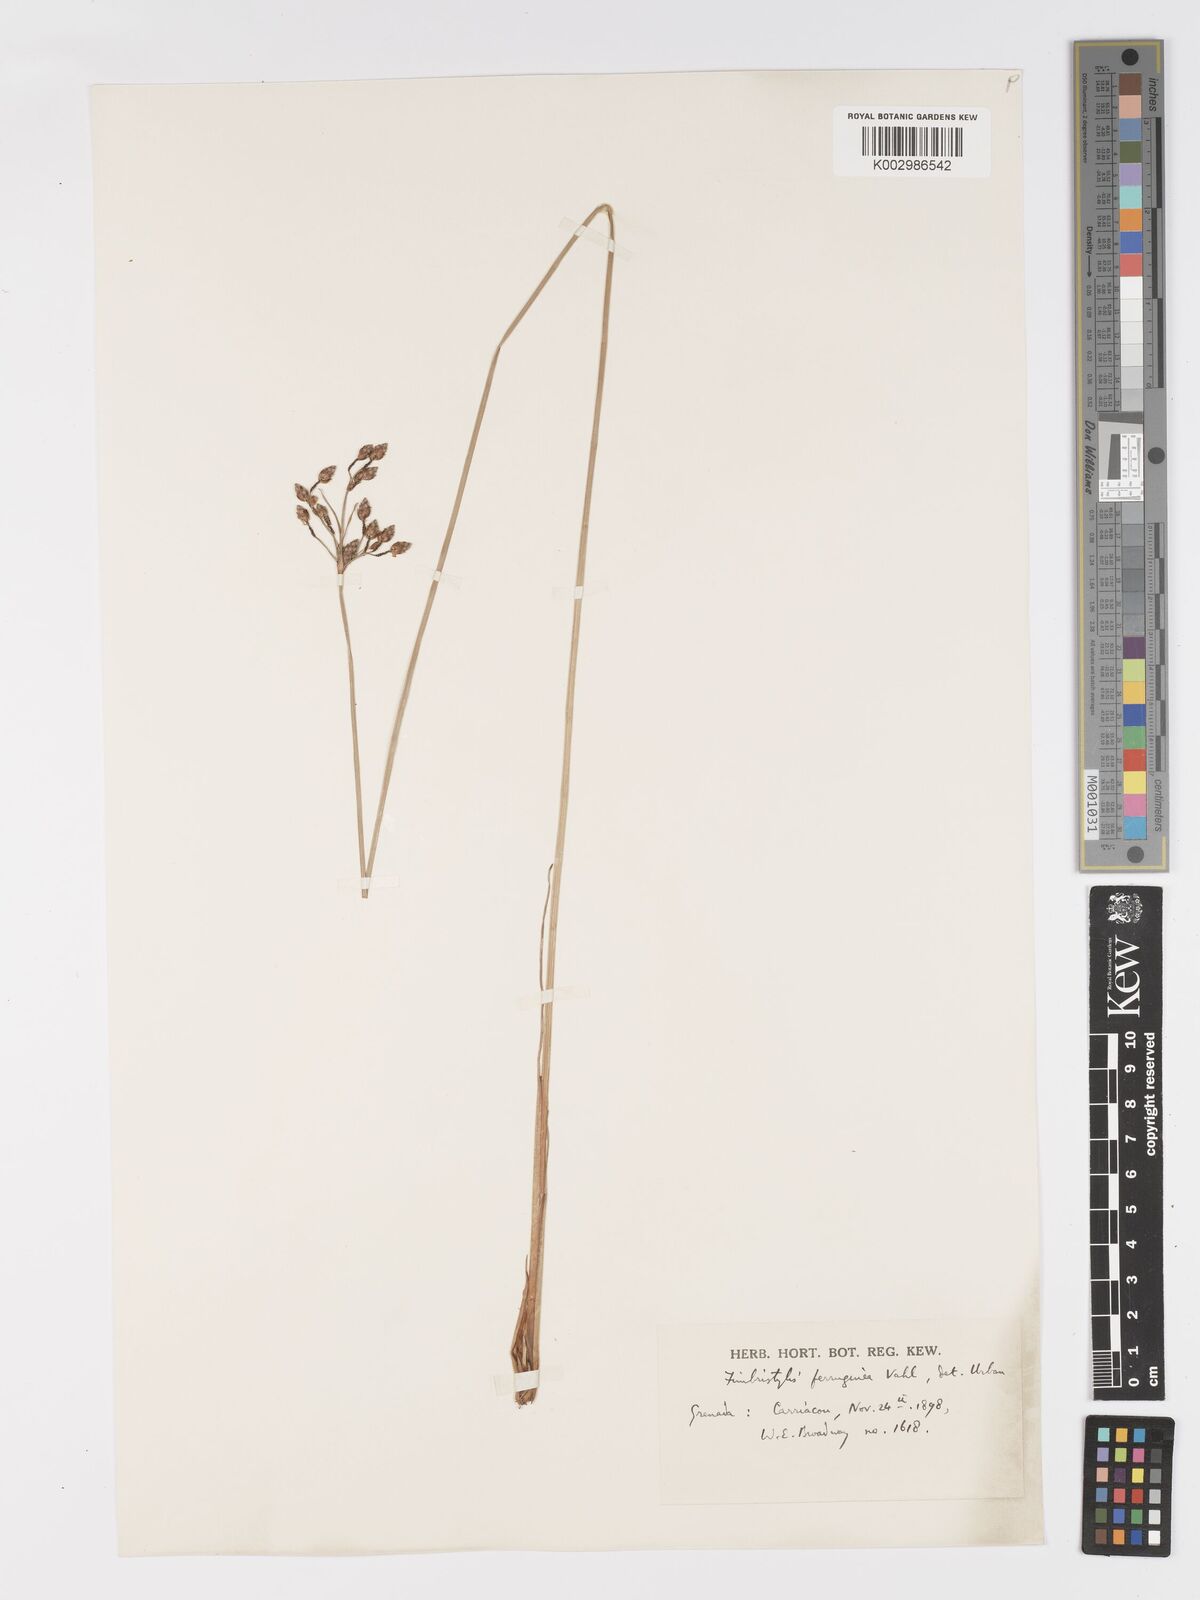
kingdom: Plantae
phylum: Tracheophyta
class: Liliopsida
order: Poales
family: Cyperaceae
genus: Fimbristylis
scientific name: Fimbristylis ferruginea
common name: West indian fimbry
